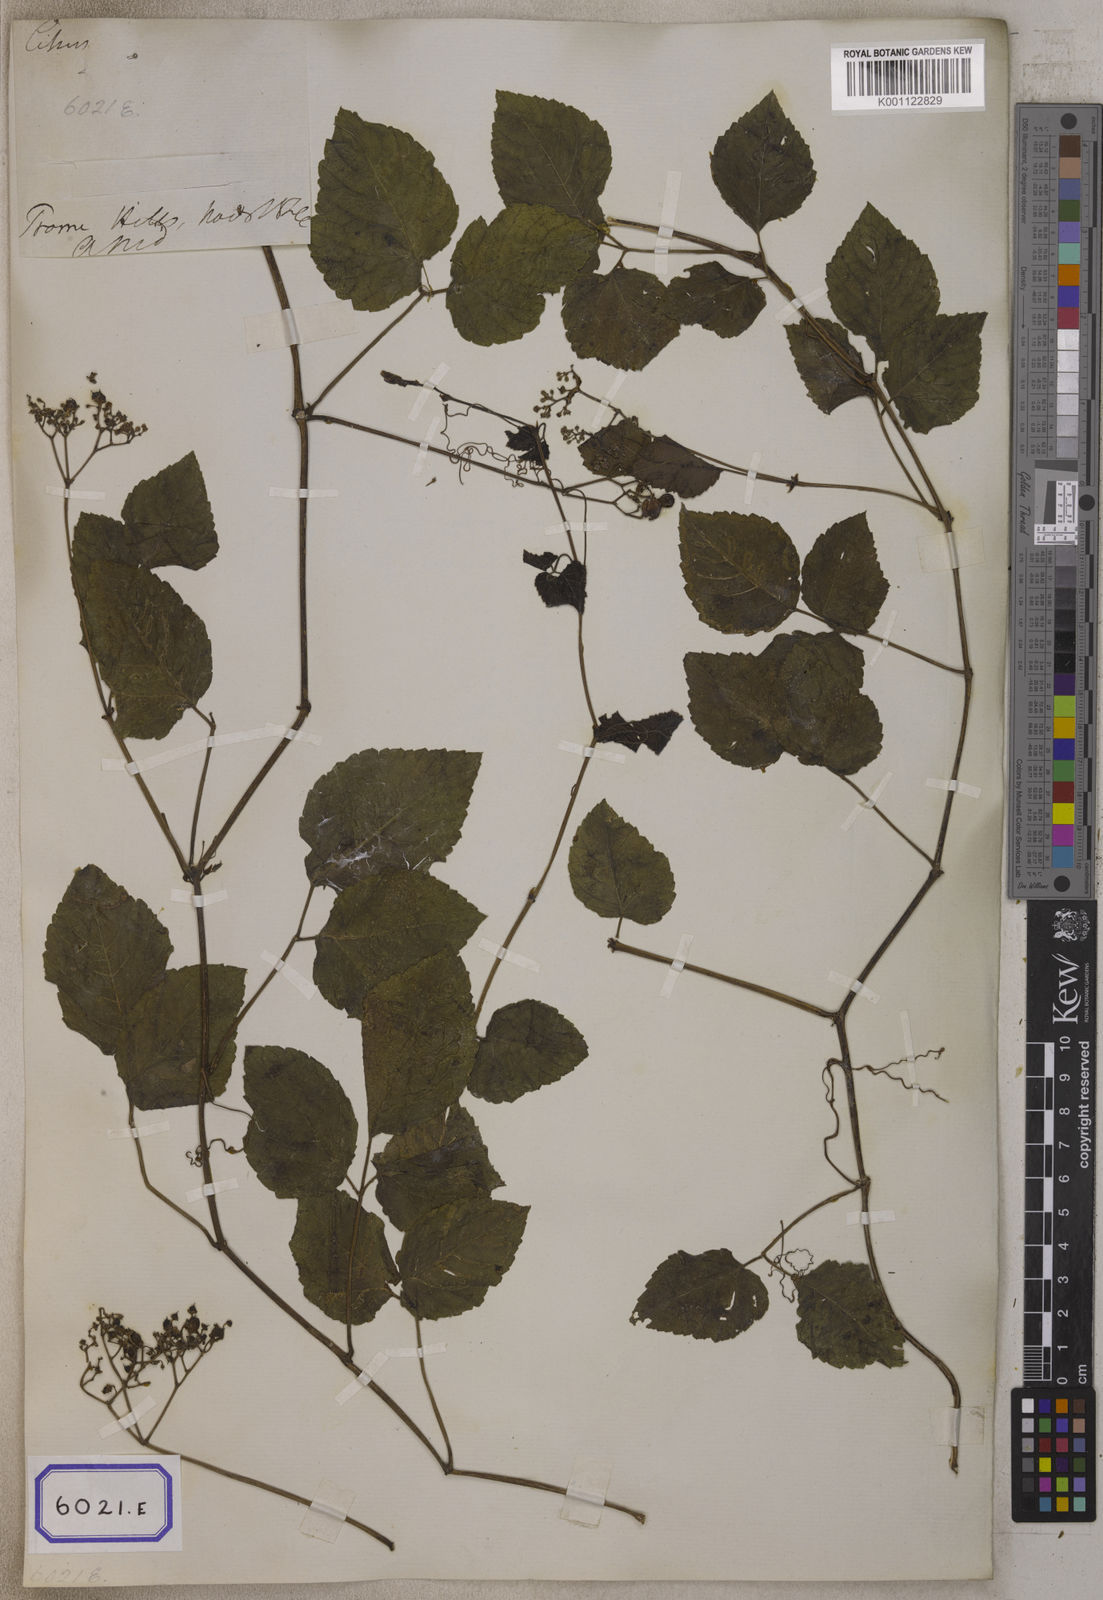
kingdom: Plantae
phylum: Tracheophyta
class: Magnoliopsida
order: Vitales
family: Vitaceae
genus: Causonis
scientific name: Causonis trifolia
